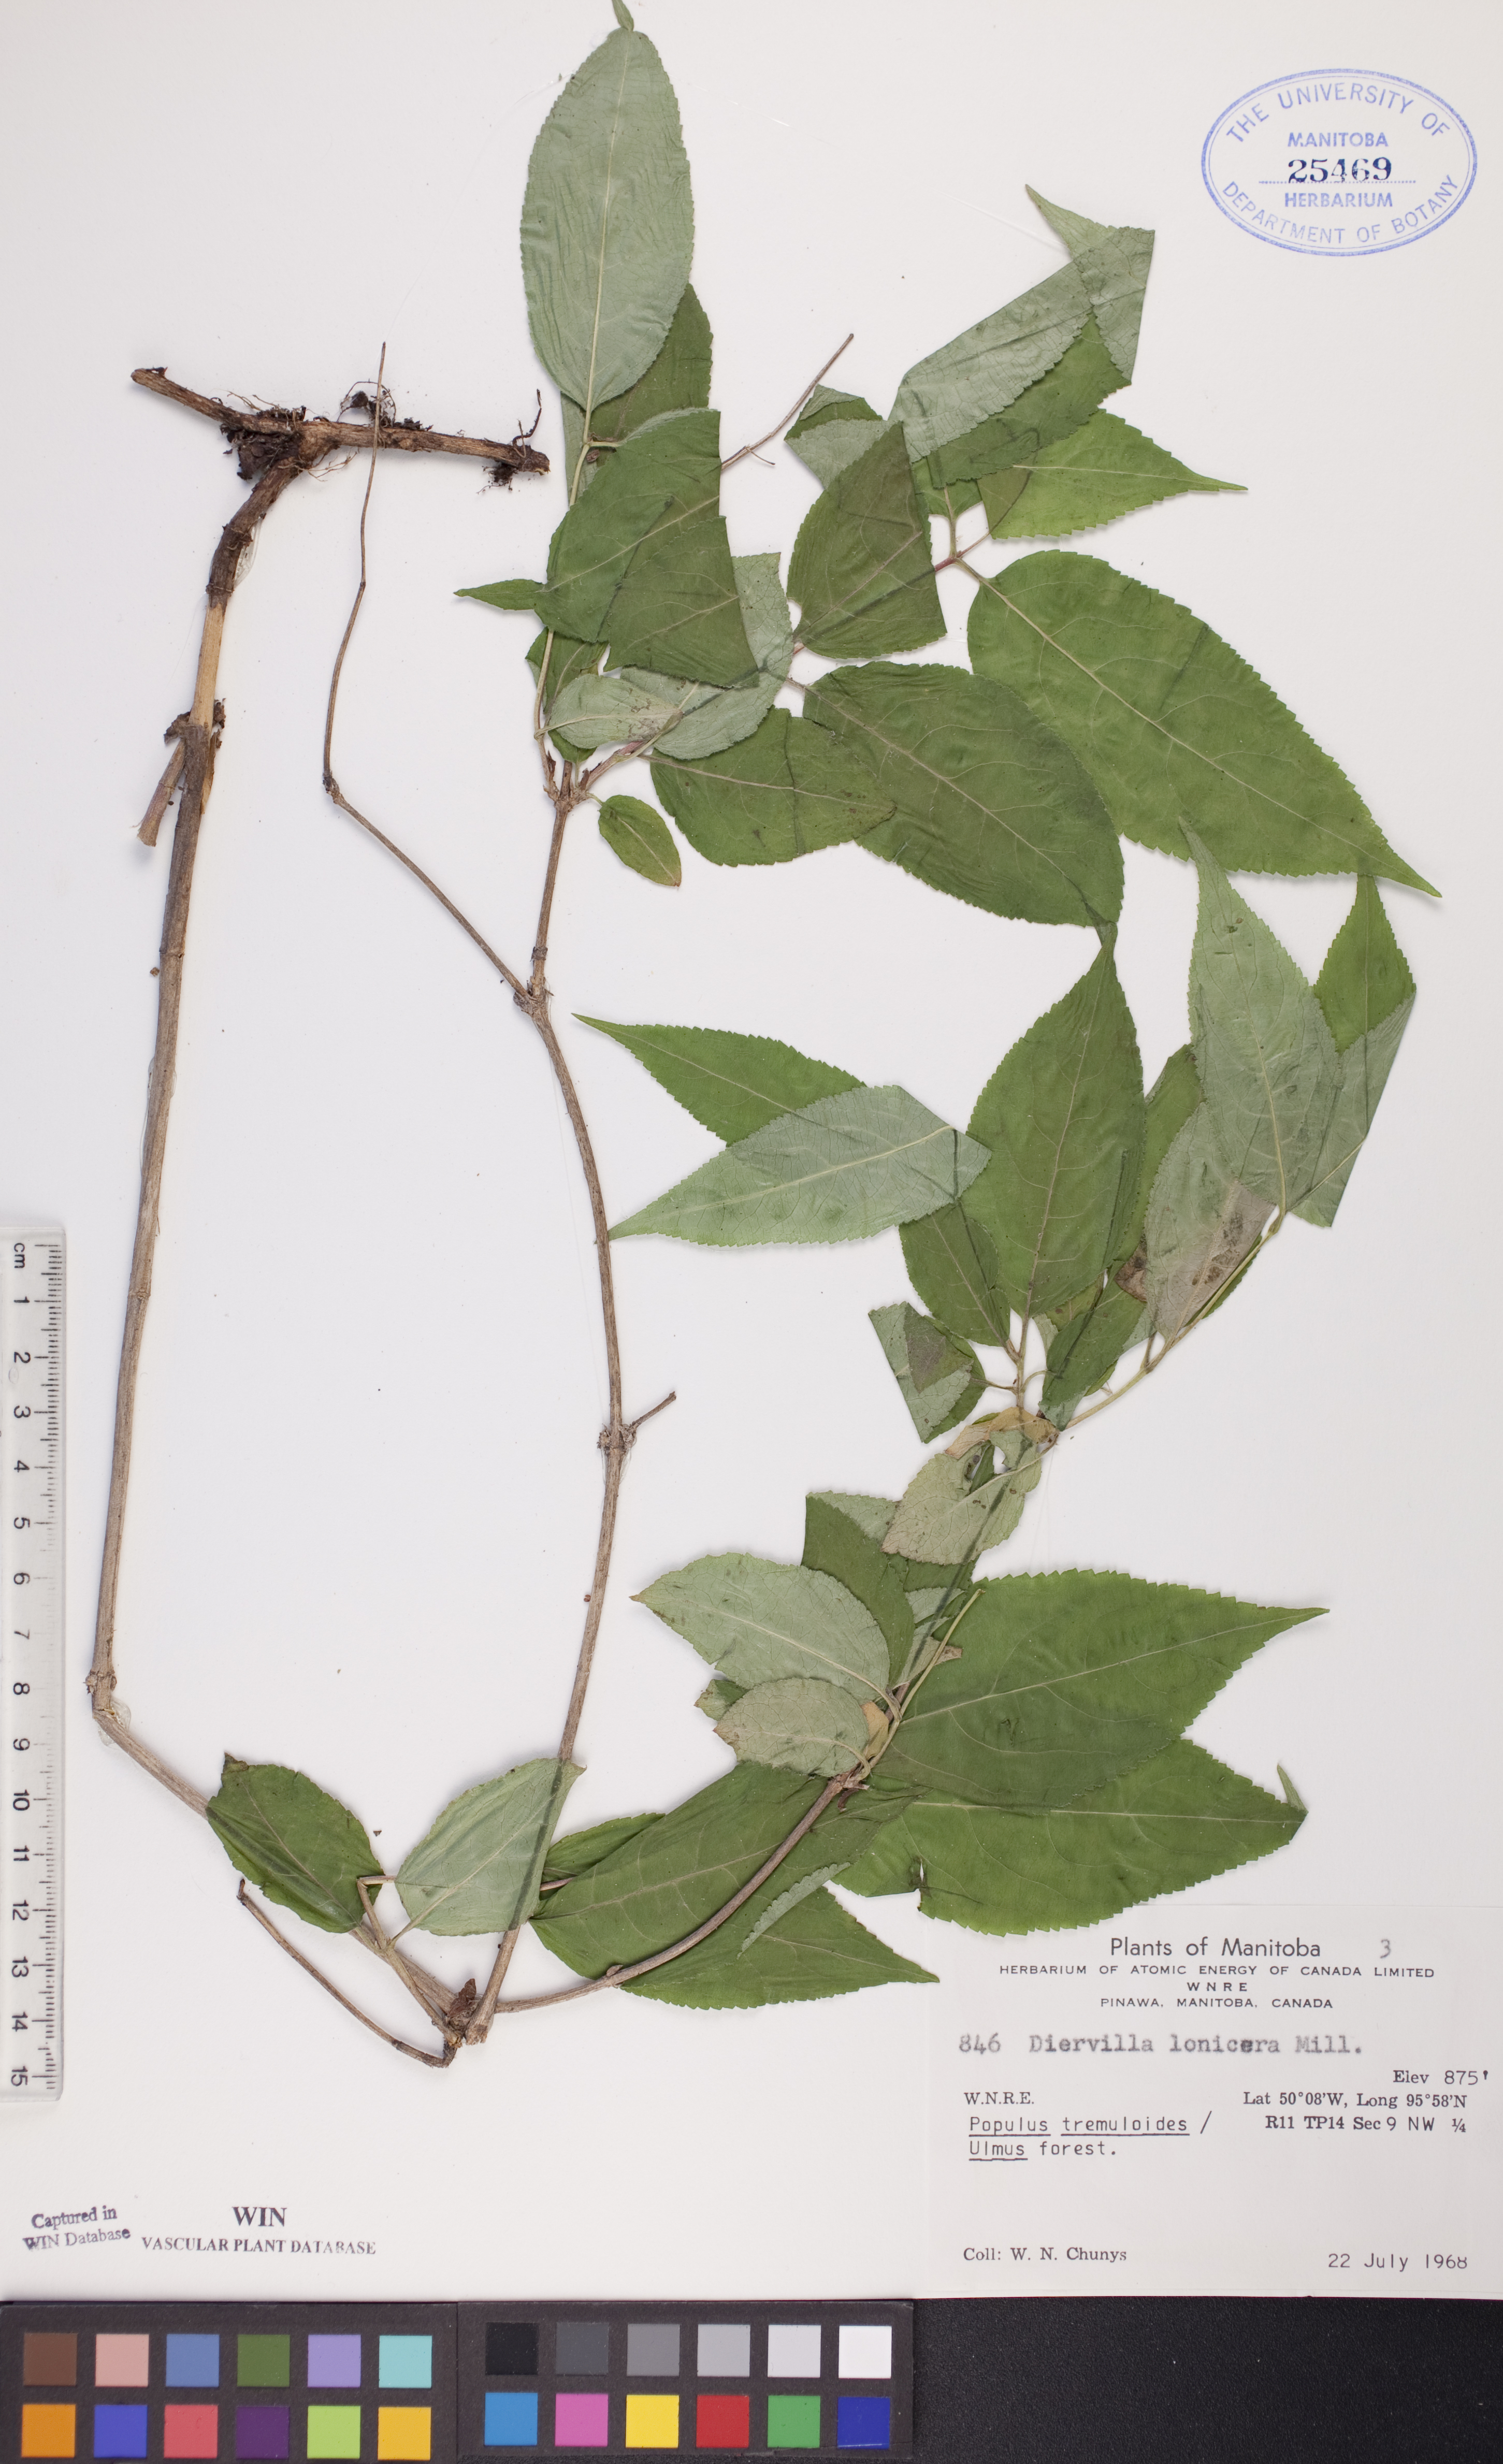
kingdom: Plantae
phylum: Tracheophyta
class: Magnoliopsida
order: Dipsacales
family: Caprifoliaceae
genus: Diervilla
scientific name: Diervilla lonicera
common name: Bush-honeysuckle
